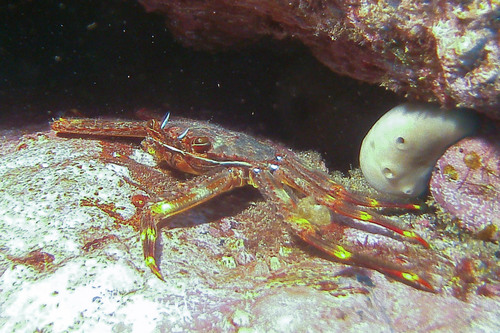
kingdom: Animalia
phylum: Arthropoda
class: Malacostraca
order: Decapoda
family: Percnidae
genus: Percnon
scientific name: Percnon gibbesi
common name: Nimble spray crab
